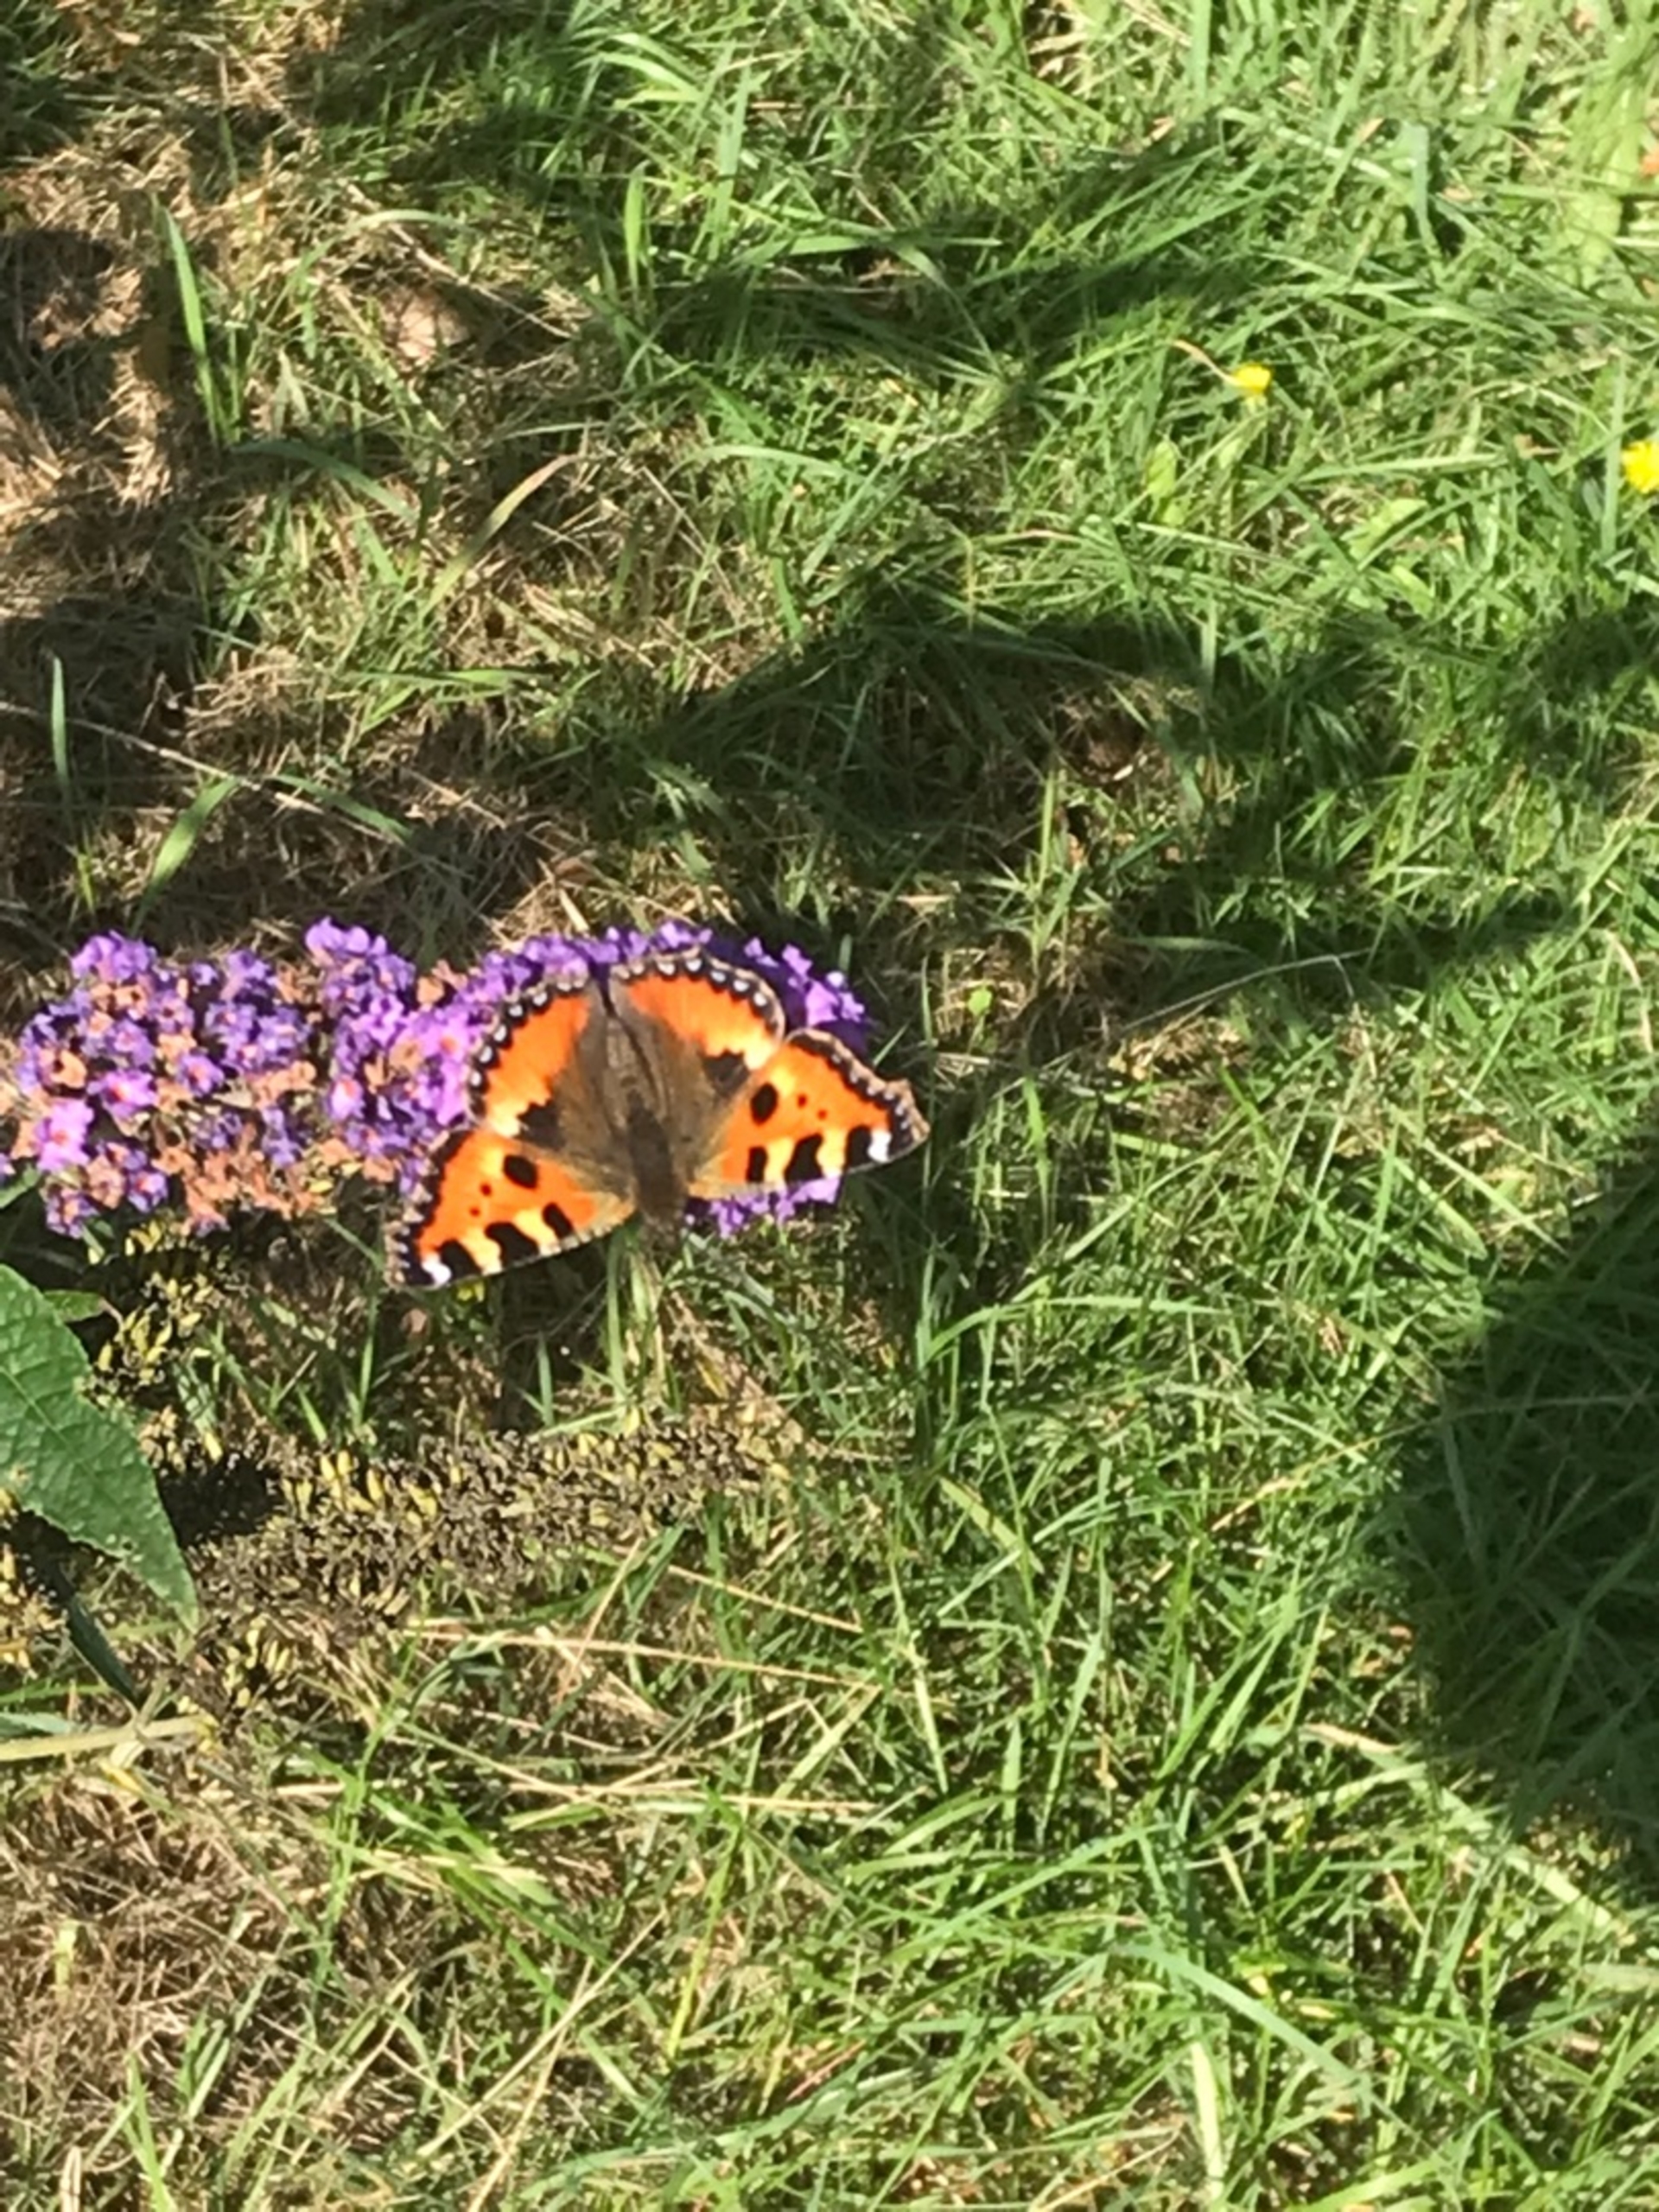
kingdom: Animalia
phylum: Arthropoda
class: Insecta
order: Lepidoptera
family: Nymphalidae
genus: Aglais
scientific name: Aglais urticae
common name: Nældens takvinge
